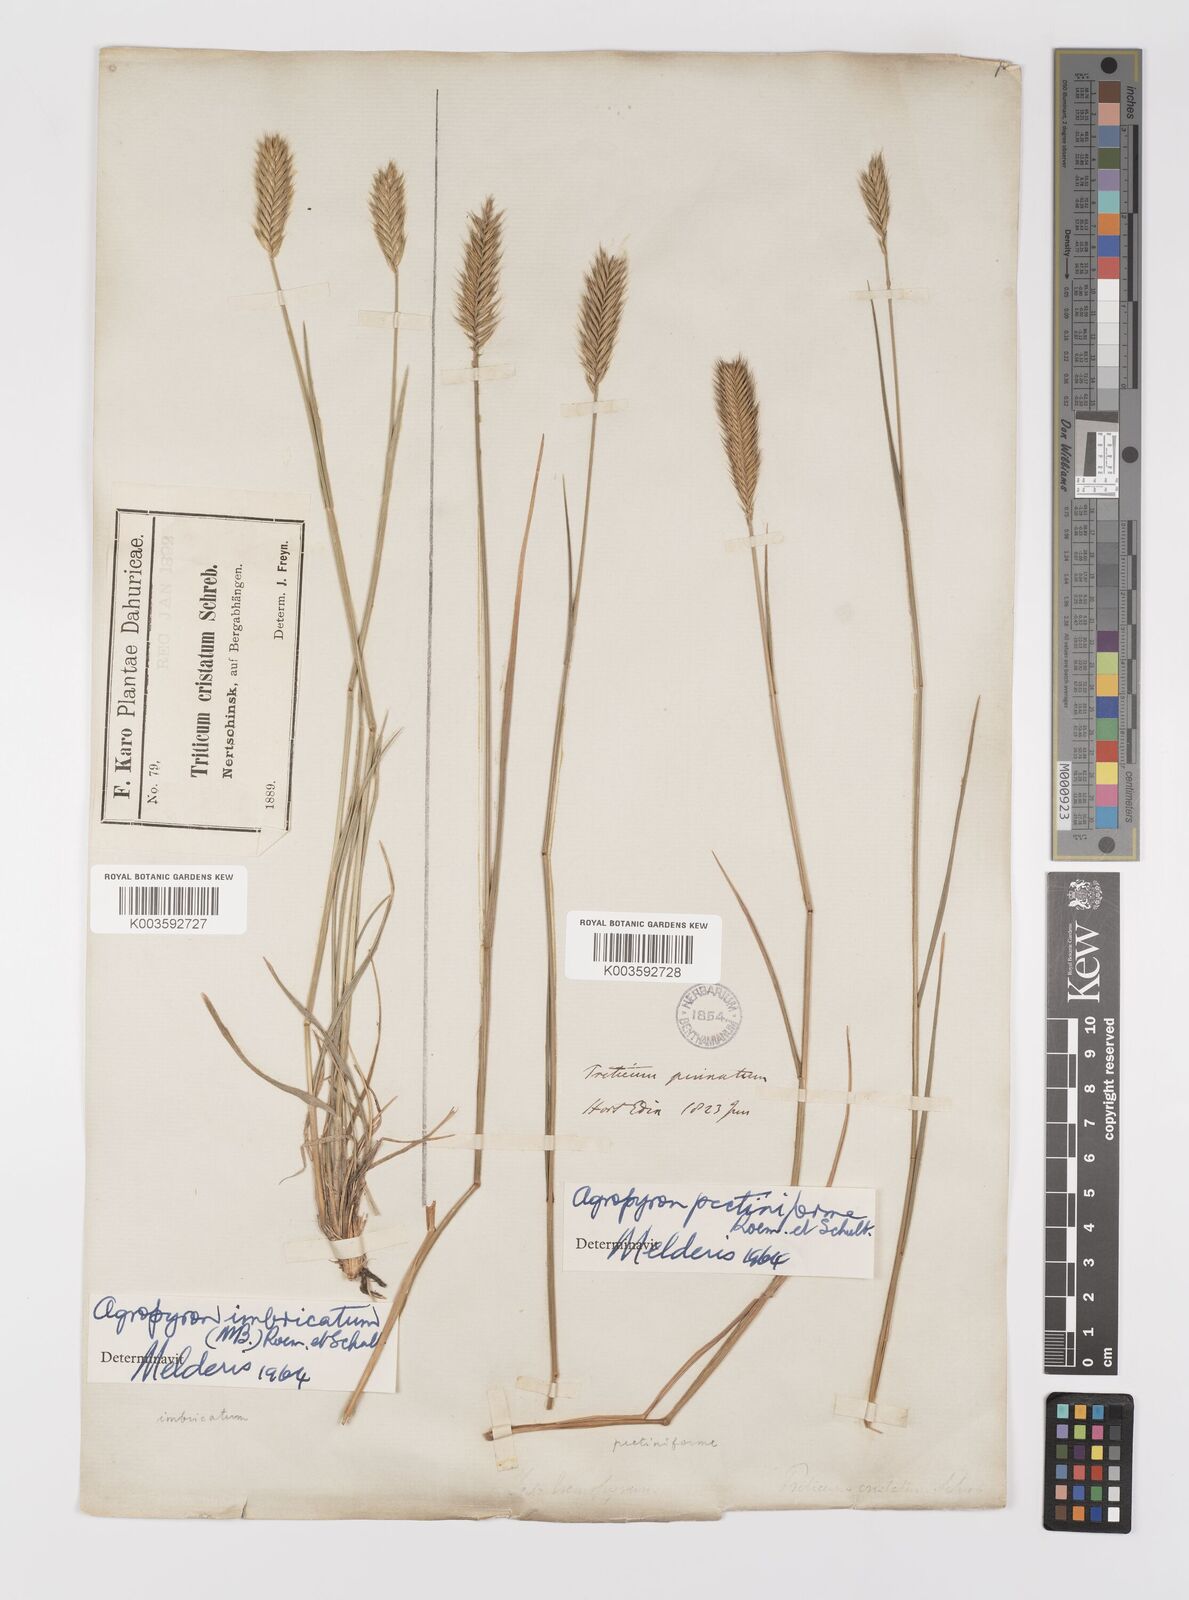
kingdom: Plantae
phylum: Tracheophyta
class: Liliopsida
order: Poales
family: Poaceae
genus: Agropyron
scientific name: Agropyron cristatum
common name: Crested wheatgrass
